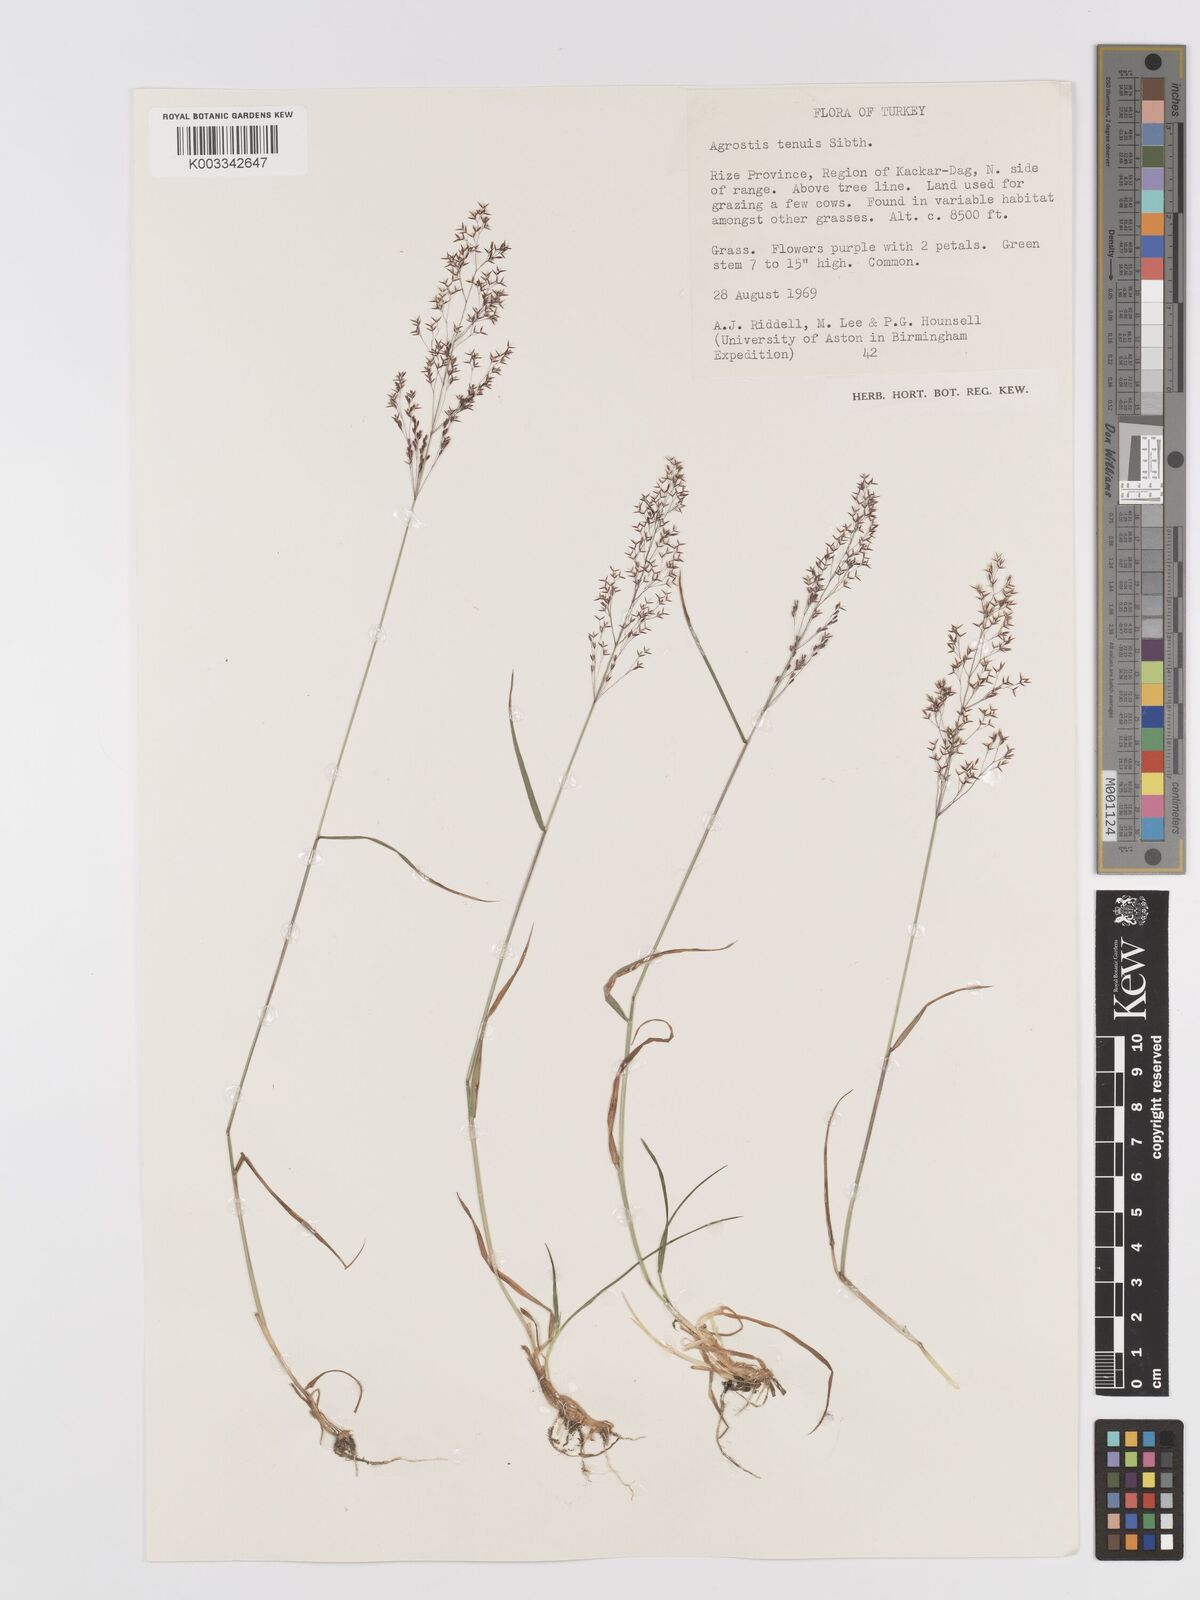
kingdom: Plantae
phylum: Tracheophyta
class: Liliopsida
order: Poales
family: Poaceae
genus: Agrostis
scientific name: Agrostis capillaris
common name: Colonial bentgrass
